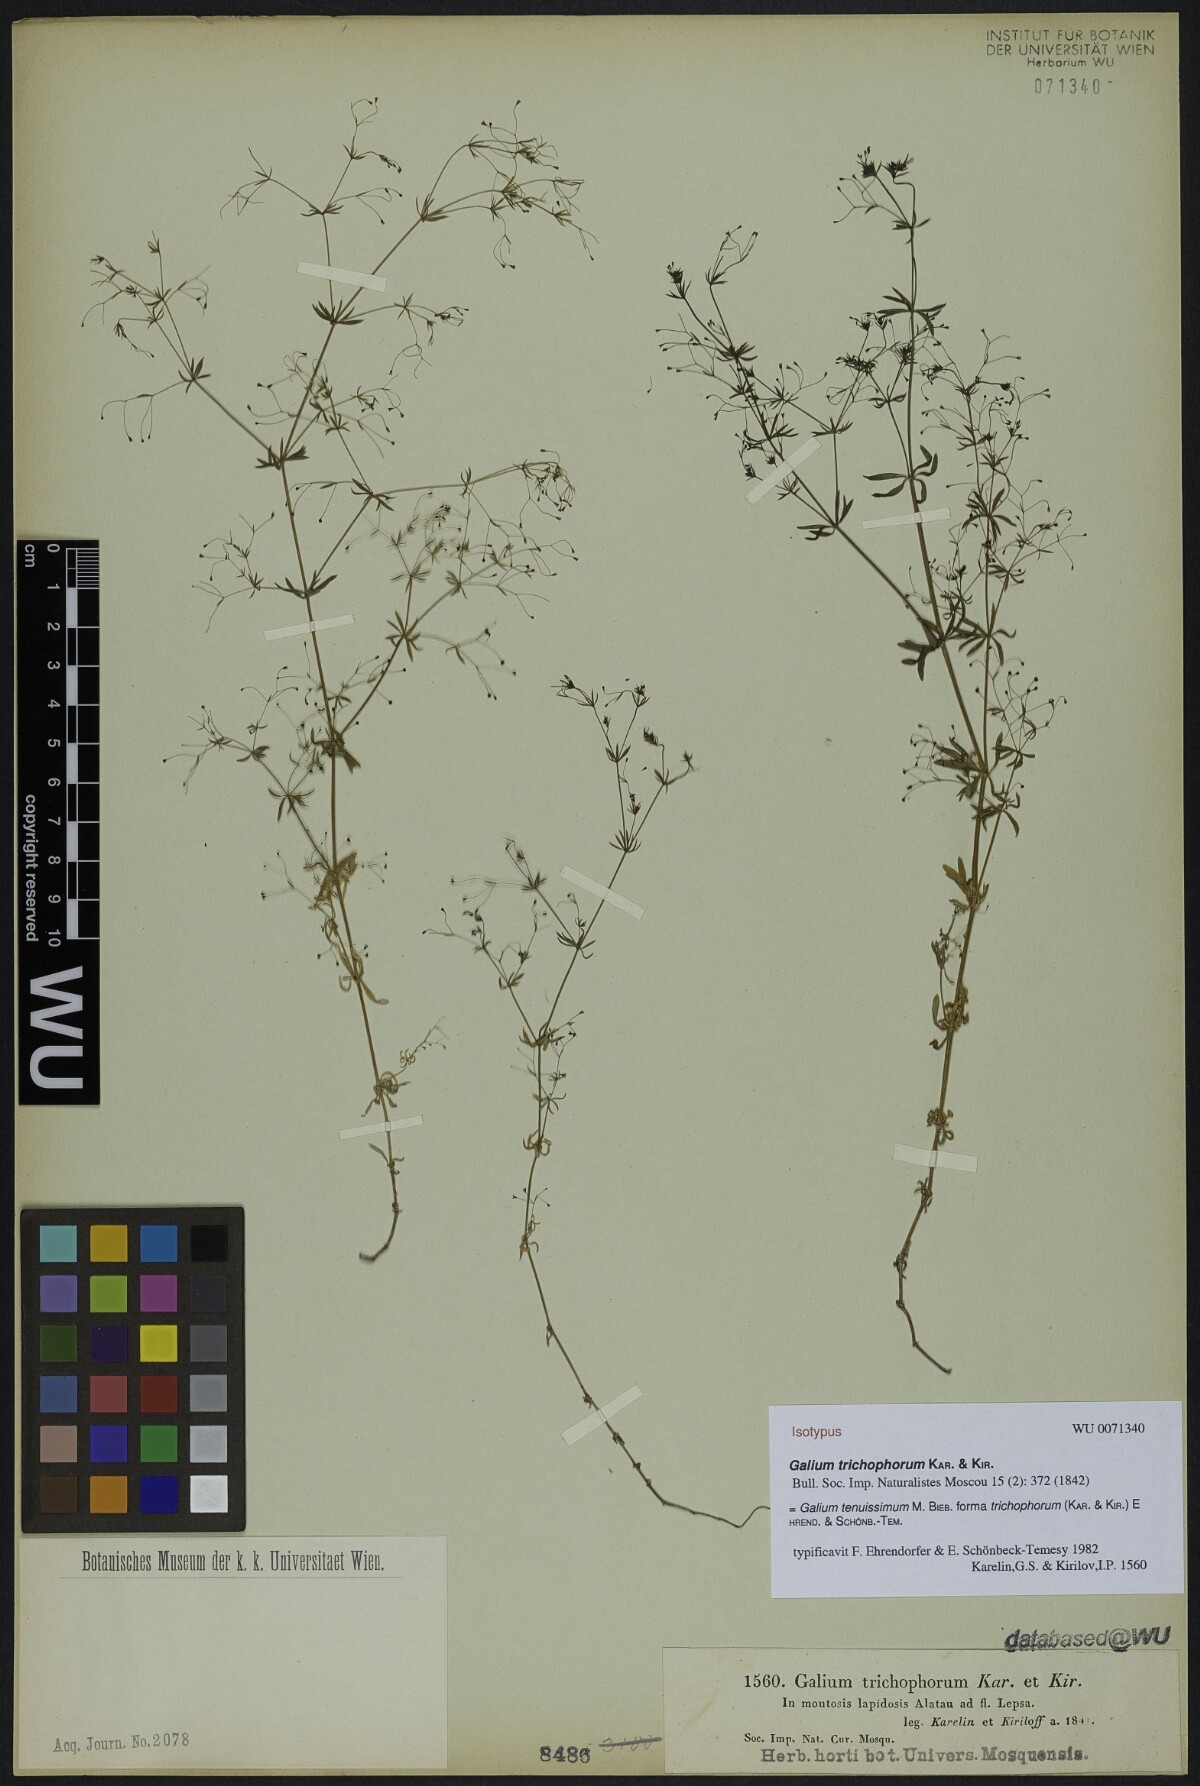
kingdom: Plantae
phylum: Tracheophyta
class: Magnoliopsida
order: Gentianales
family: Rubiaceae
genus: Galium
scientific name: Galium tenuissimum
